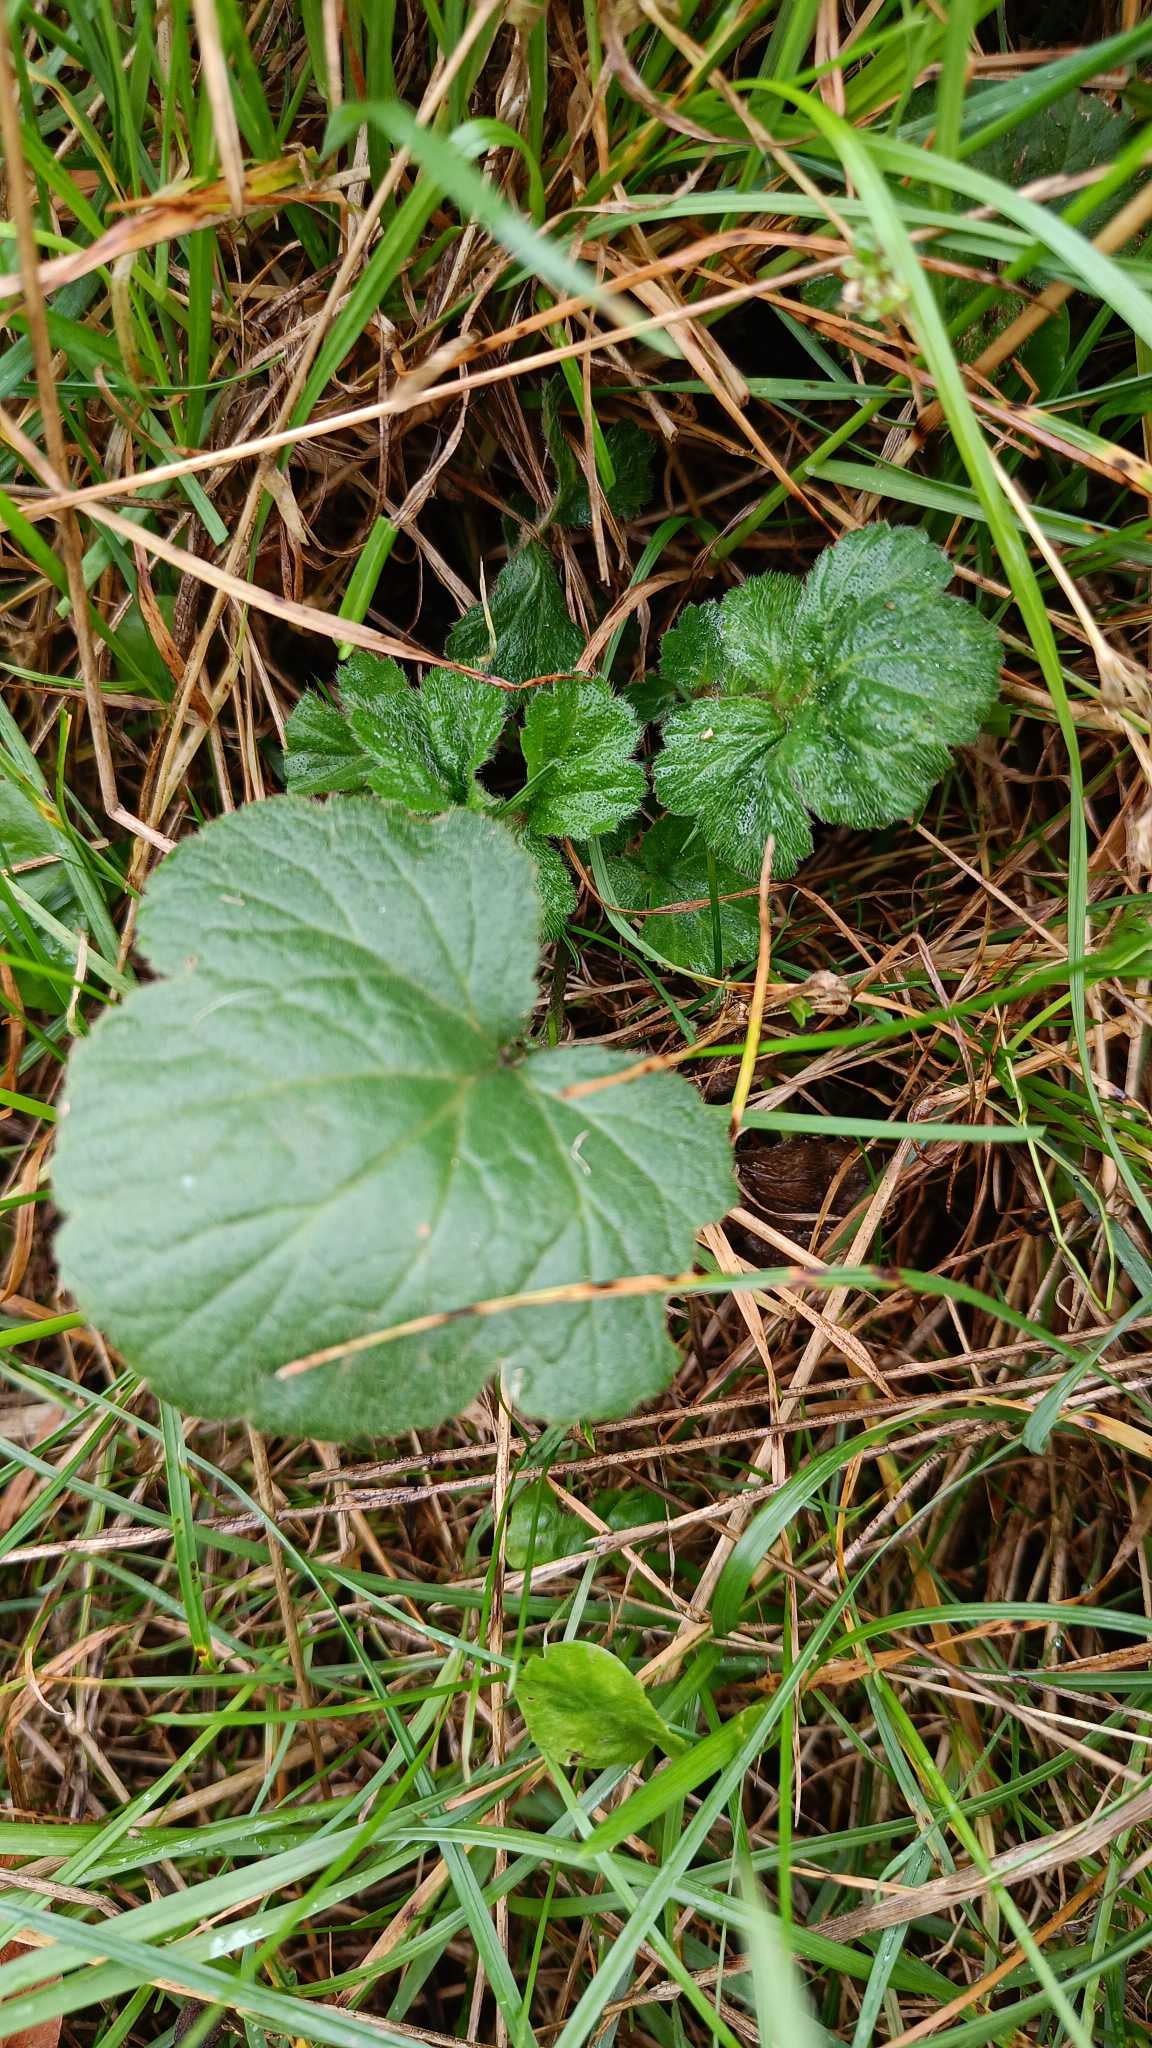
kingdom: Plantae
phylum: Tracheophyta
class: Magnoliopsida
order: Rosales
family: Rosaceae
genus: Geum
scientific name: Geum urbanum
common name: Feber-nellikerod
